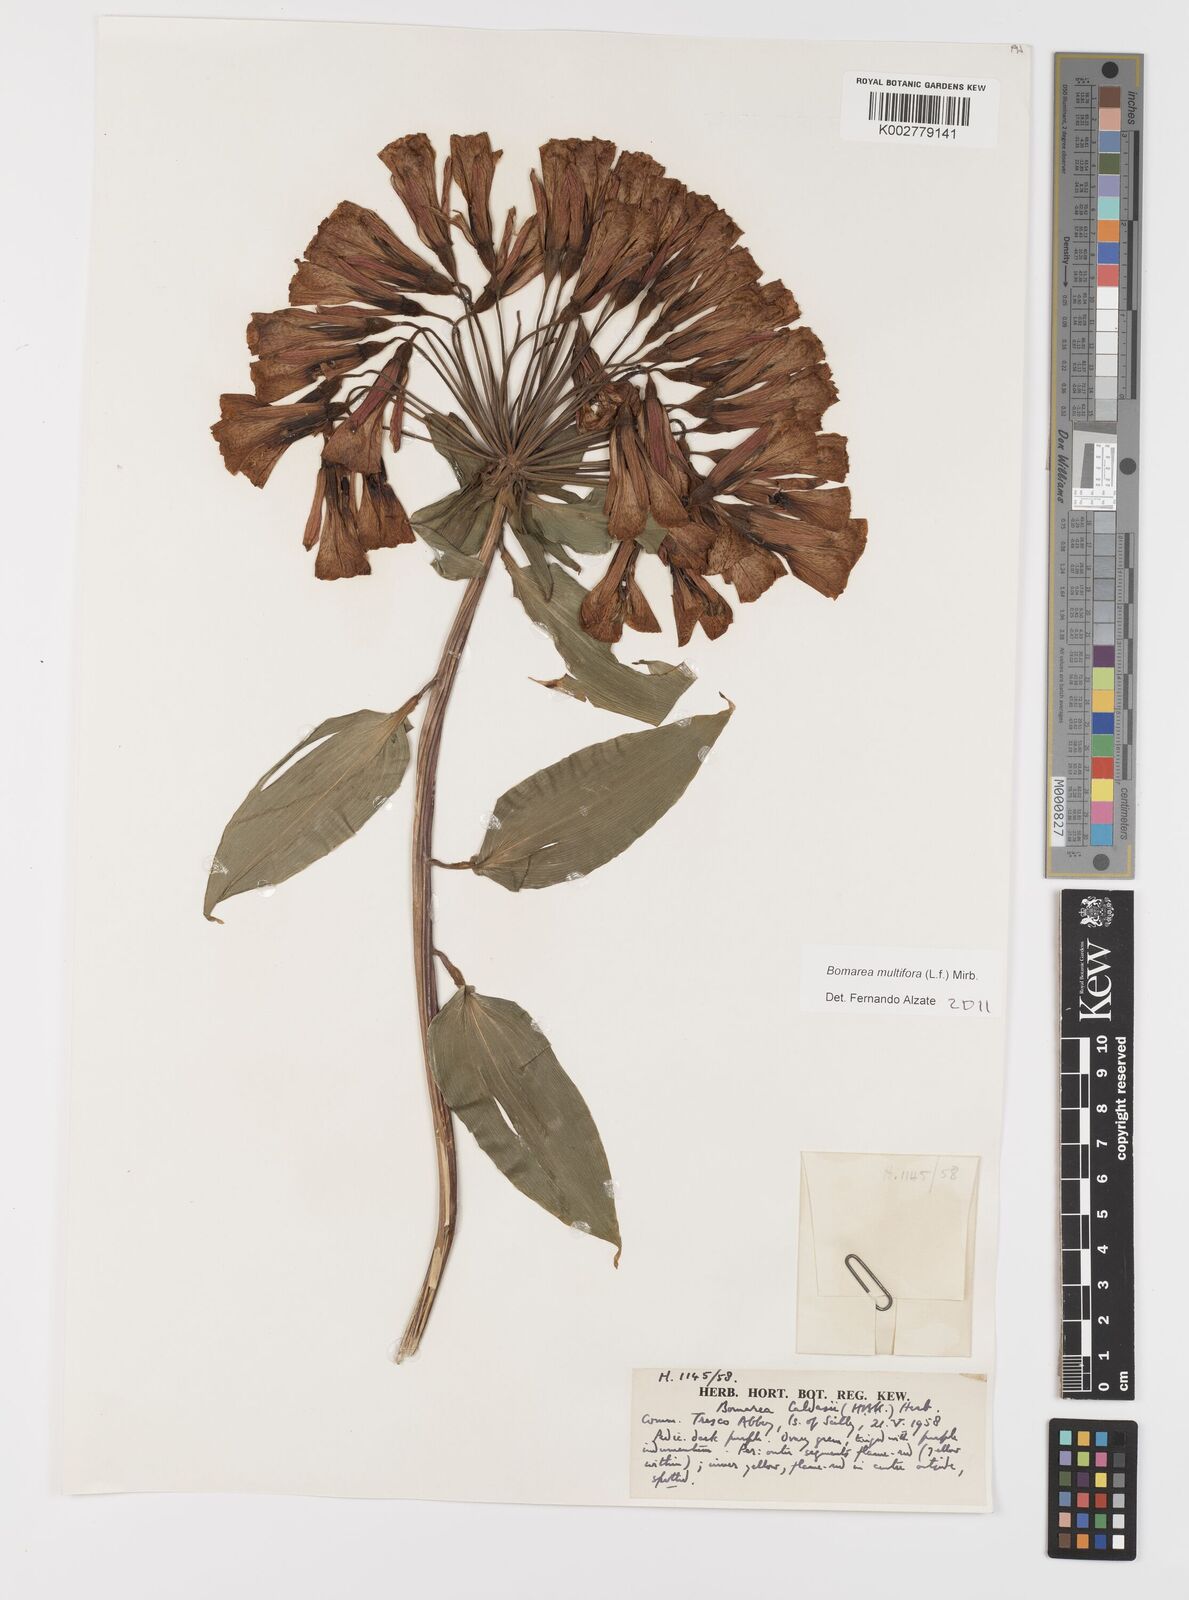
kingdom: Plantae
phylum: Tracheophyta
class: Liliopsida
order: Liliales
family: Alstroemeriaceae
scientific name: Alstroemeriaceae
